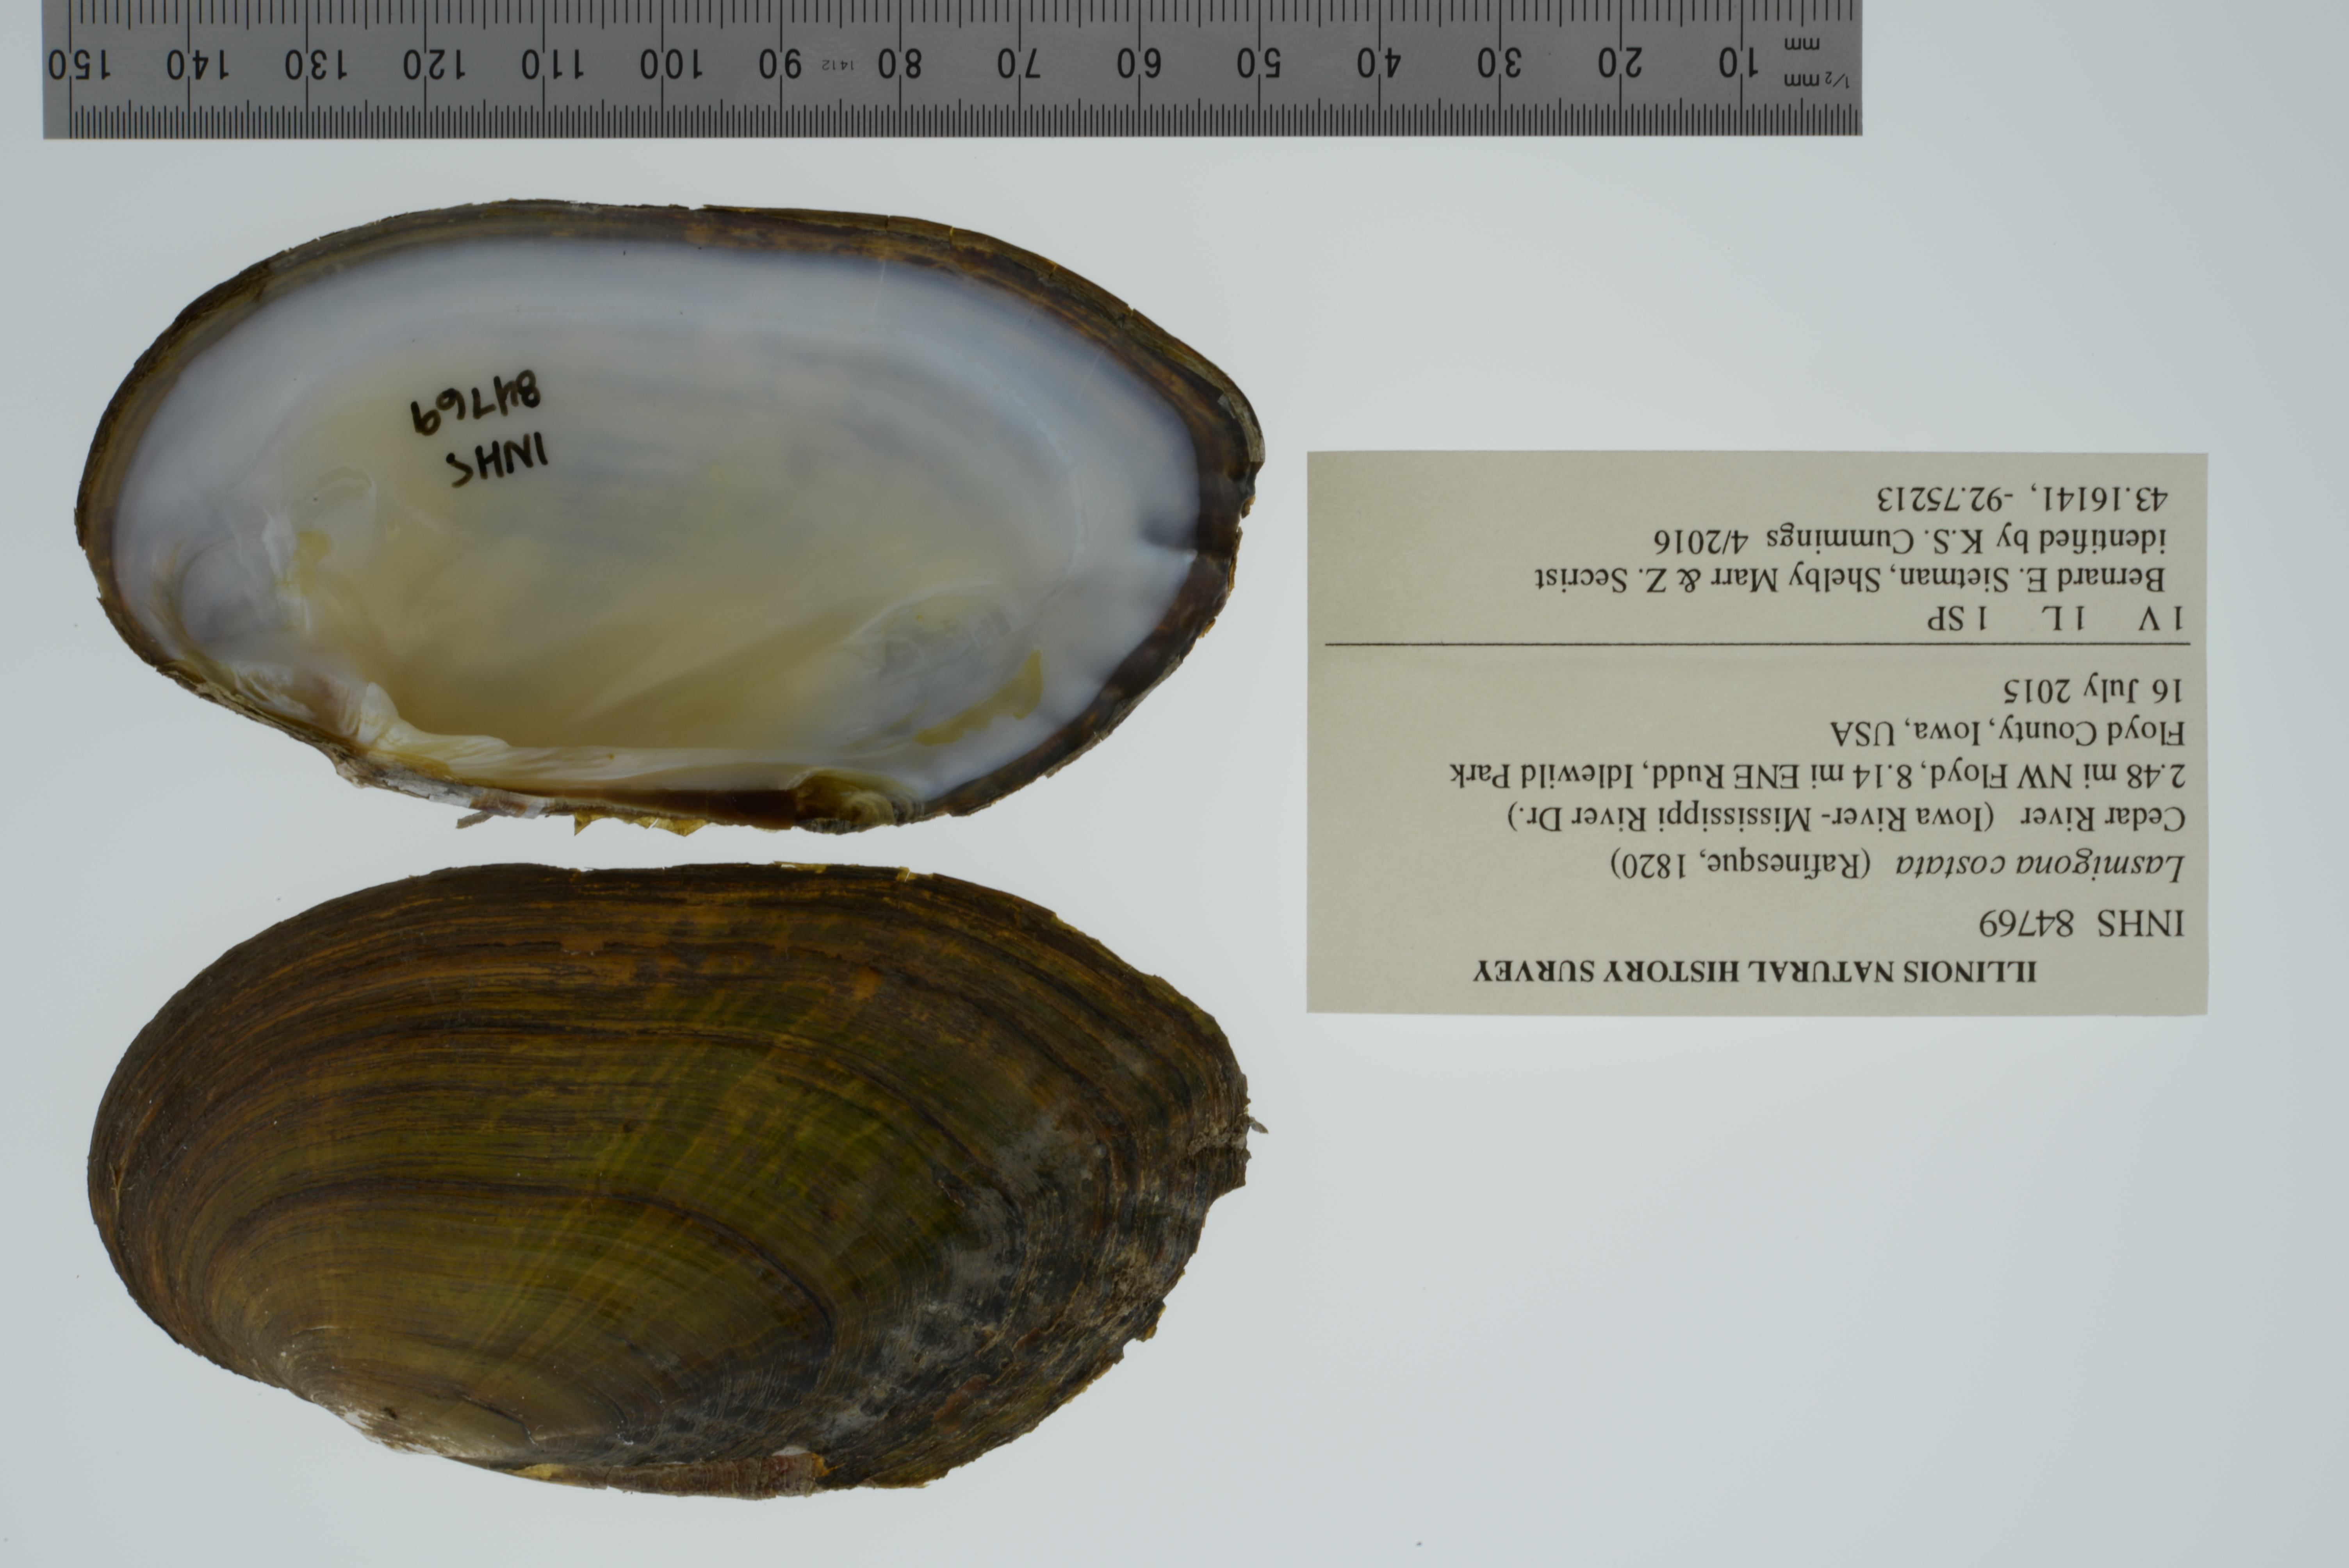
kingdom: Animalia
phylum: Mollusca
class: Bivalvia
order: Unionida
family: Unionidae
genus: Lasmigona
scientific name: Lasmigona costata
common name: Flutedshell
